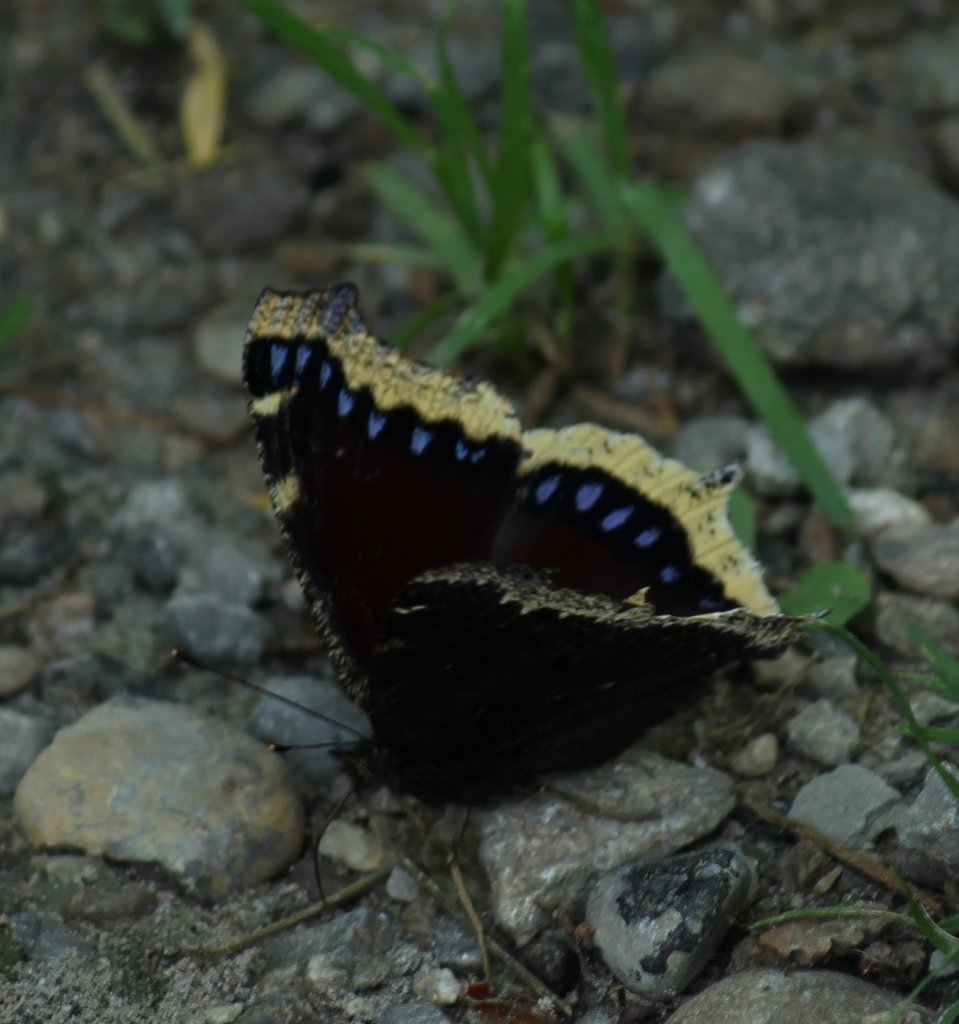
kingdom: Animalia
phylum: Arthropoda
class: Insecta
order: Lepidoptera
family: Nymphalidae
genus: Nymphalis
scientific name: Nymphalis antiopa
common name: Mourning Cloak
